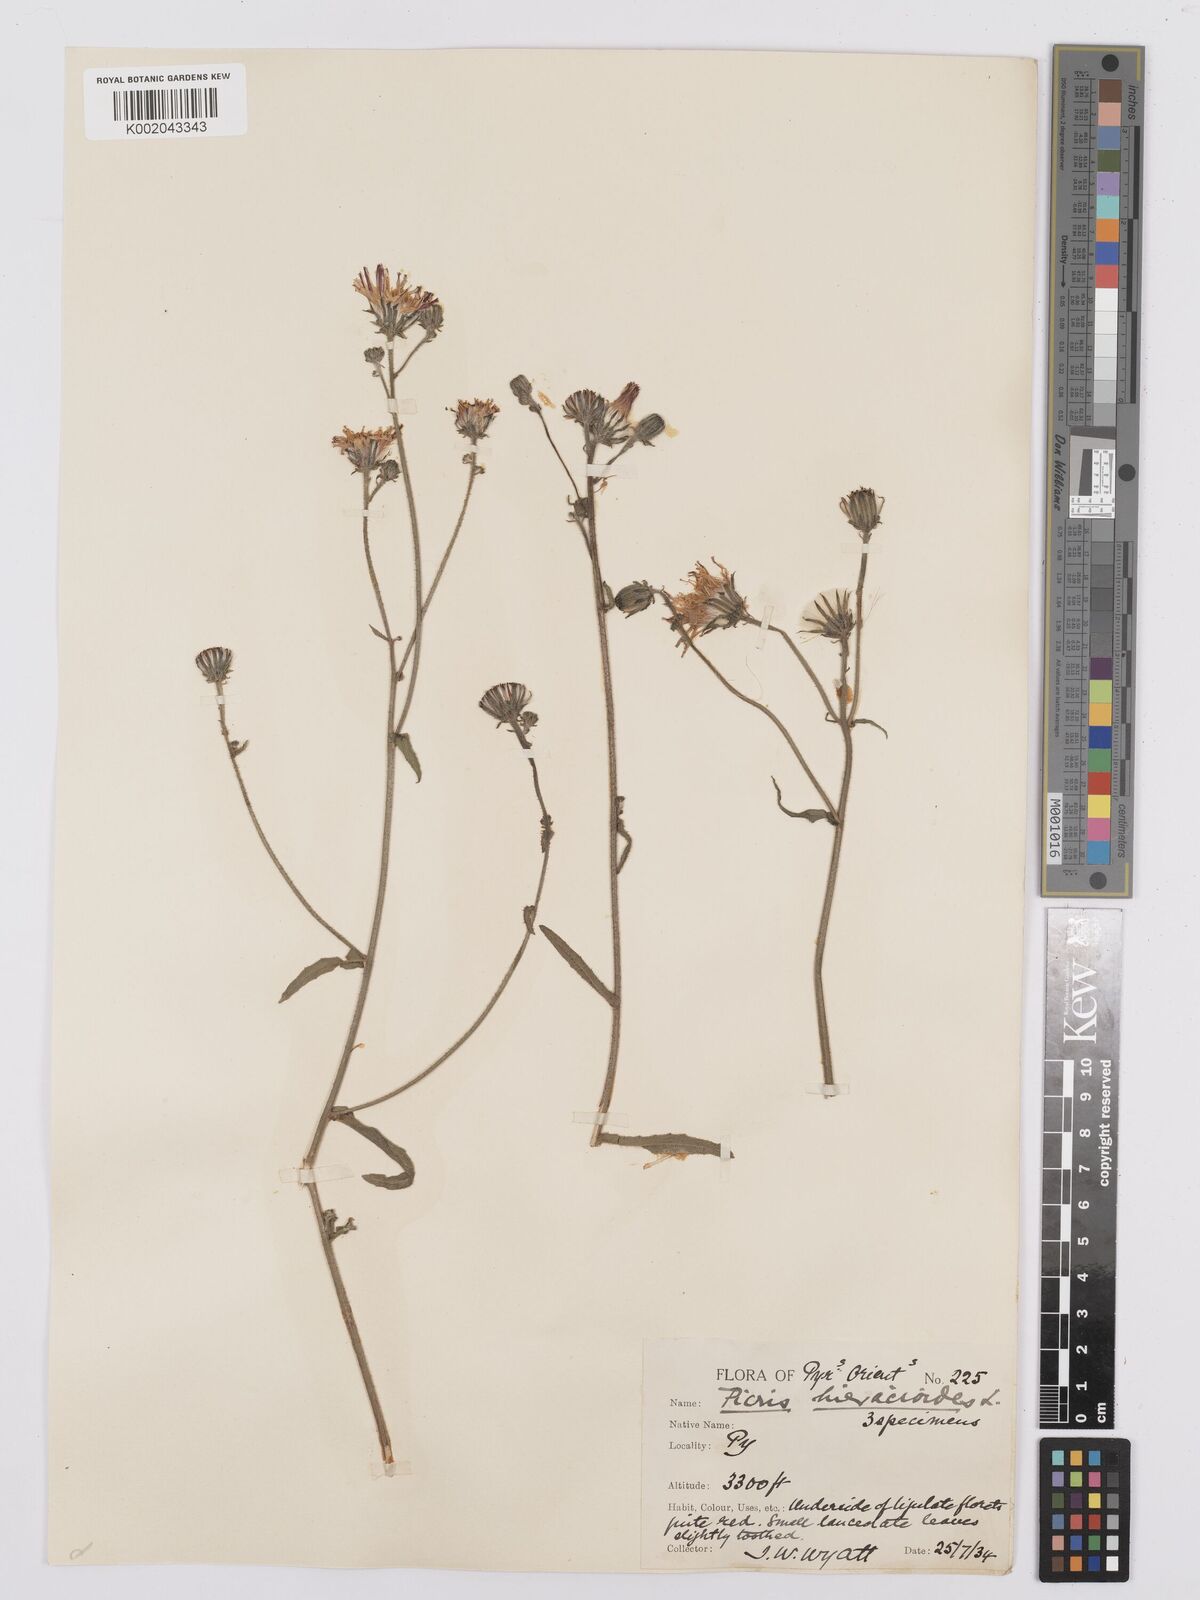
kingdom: Plantae
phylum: Tracheophyta
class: Magnoliopsida
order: Asterales
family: Asteraceae
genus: Picris
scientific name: Picris hieracioides
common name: Hawkweed oxtongue
